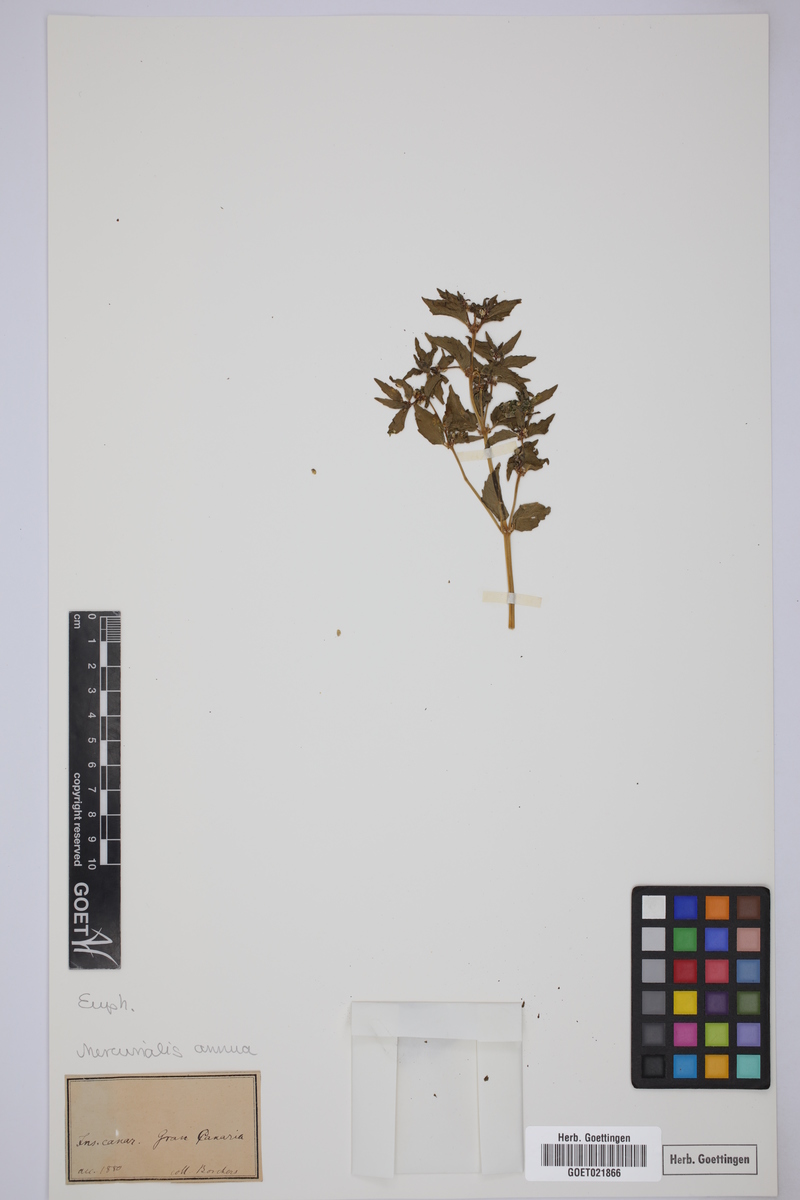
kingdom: Plantae
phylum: Tracheophyta
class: Magnoliopsida
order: Malpighiales
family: Euphorbiaceae
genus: Mercurialis
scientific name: Mercurialis annua
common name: Annual mercury
